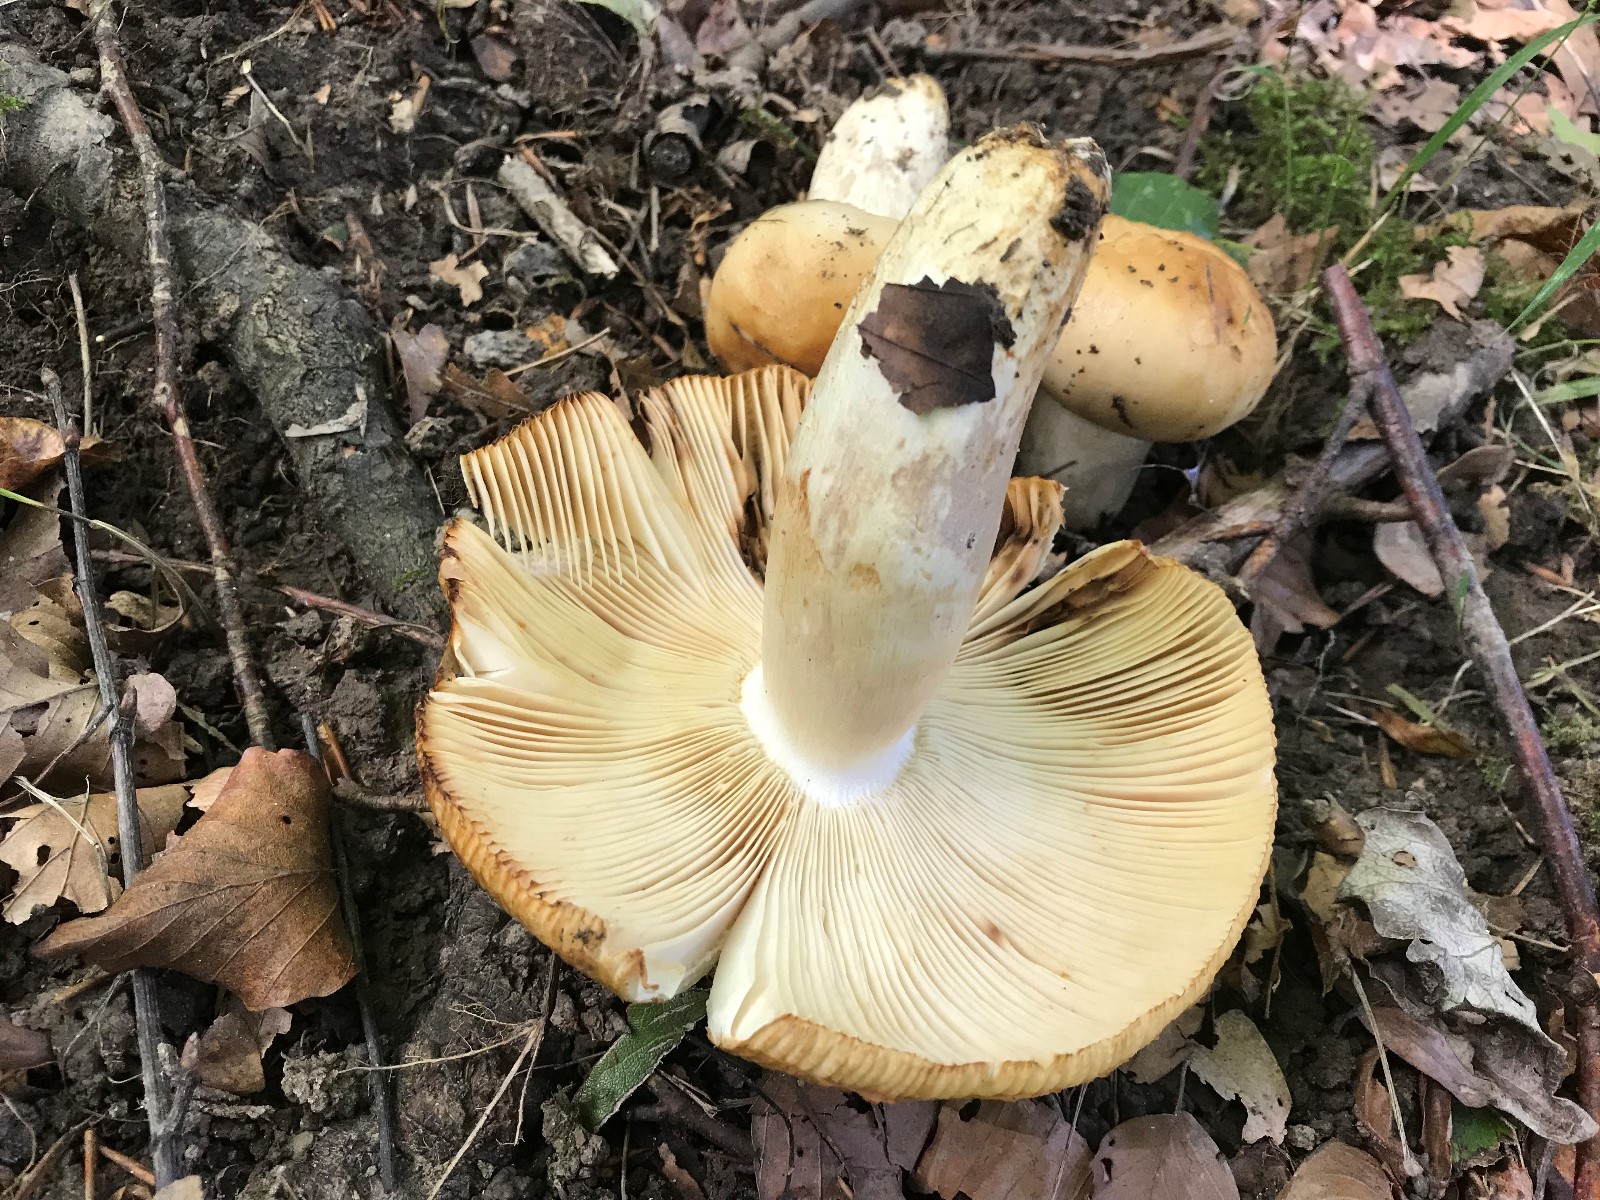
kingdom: Fungi
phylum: Basidiomycota
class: Agaricomycetes
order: Russulales
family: Russulaceae
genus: Russula
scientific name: Russula foetens
